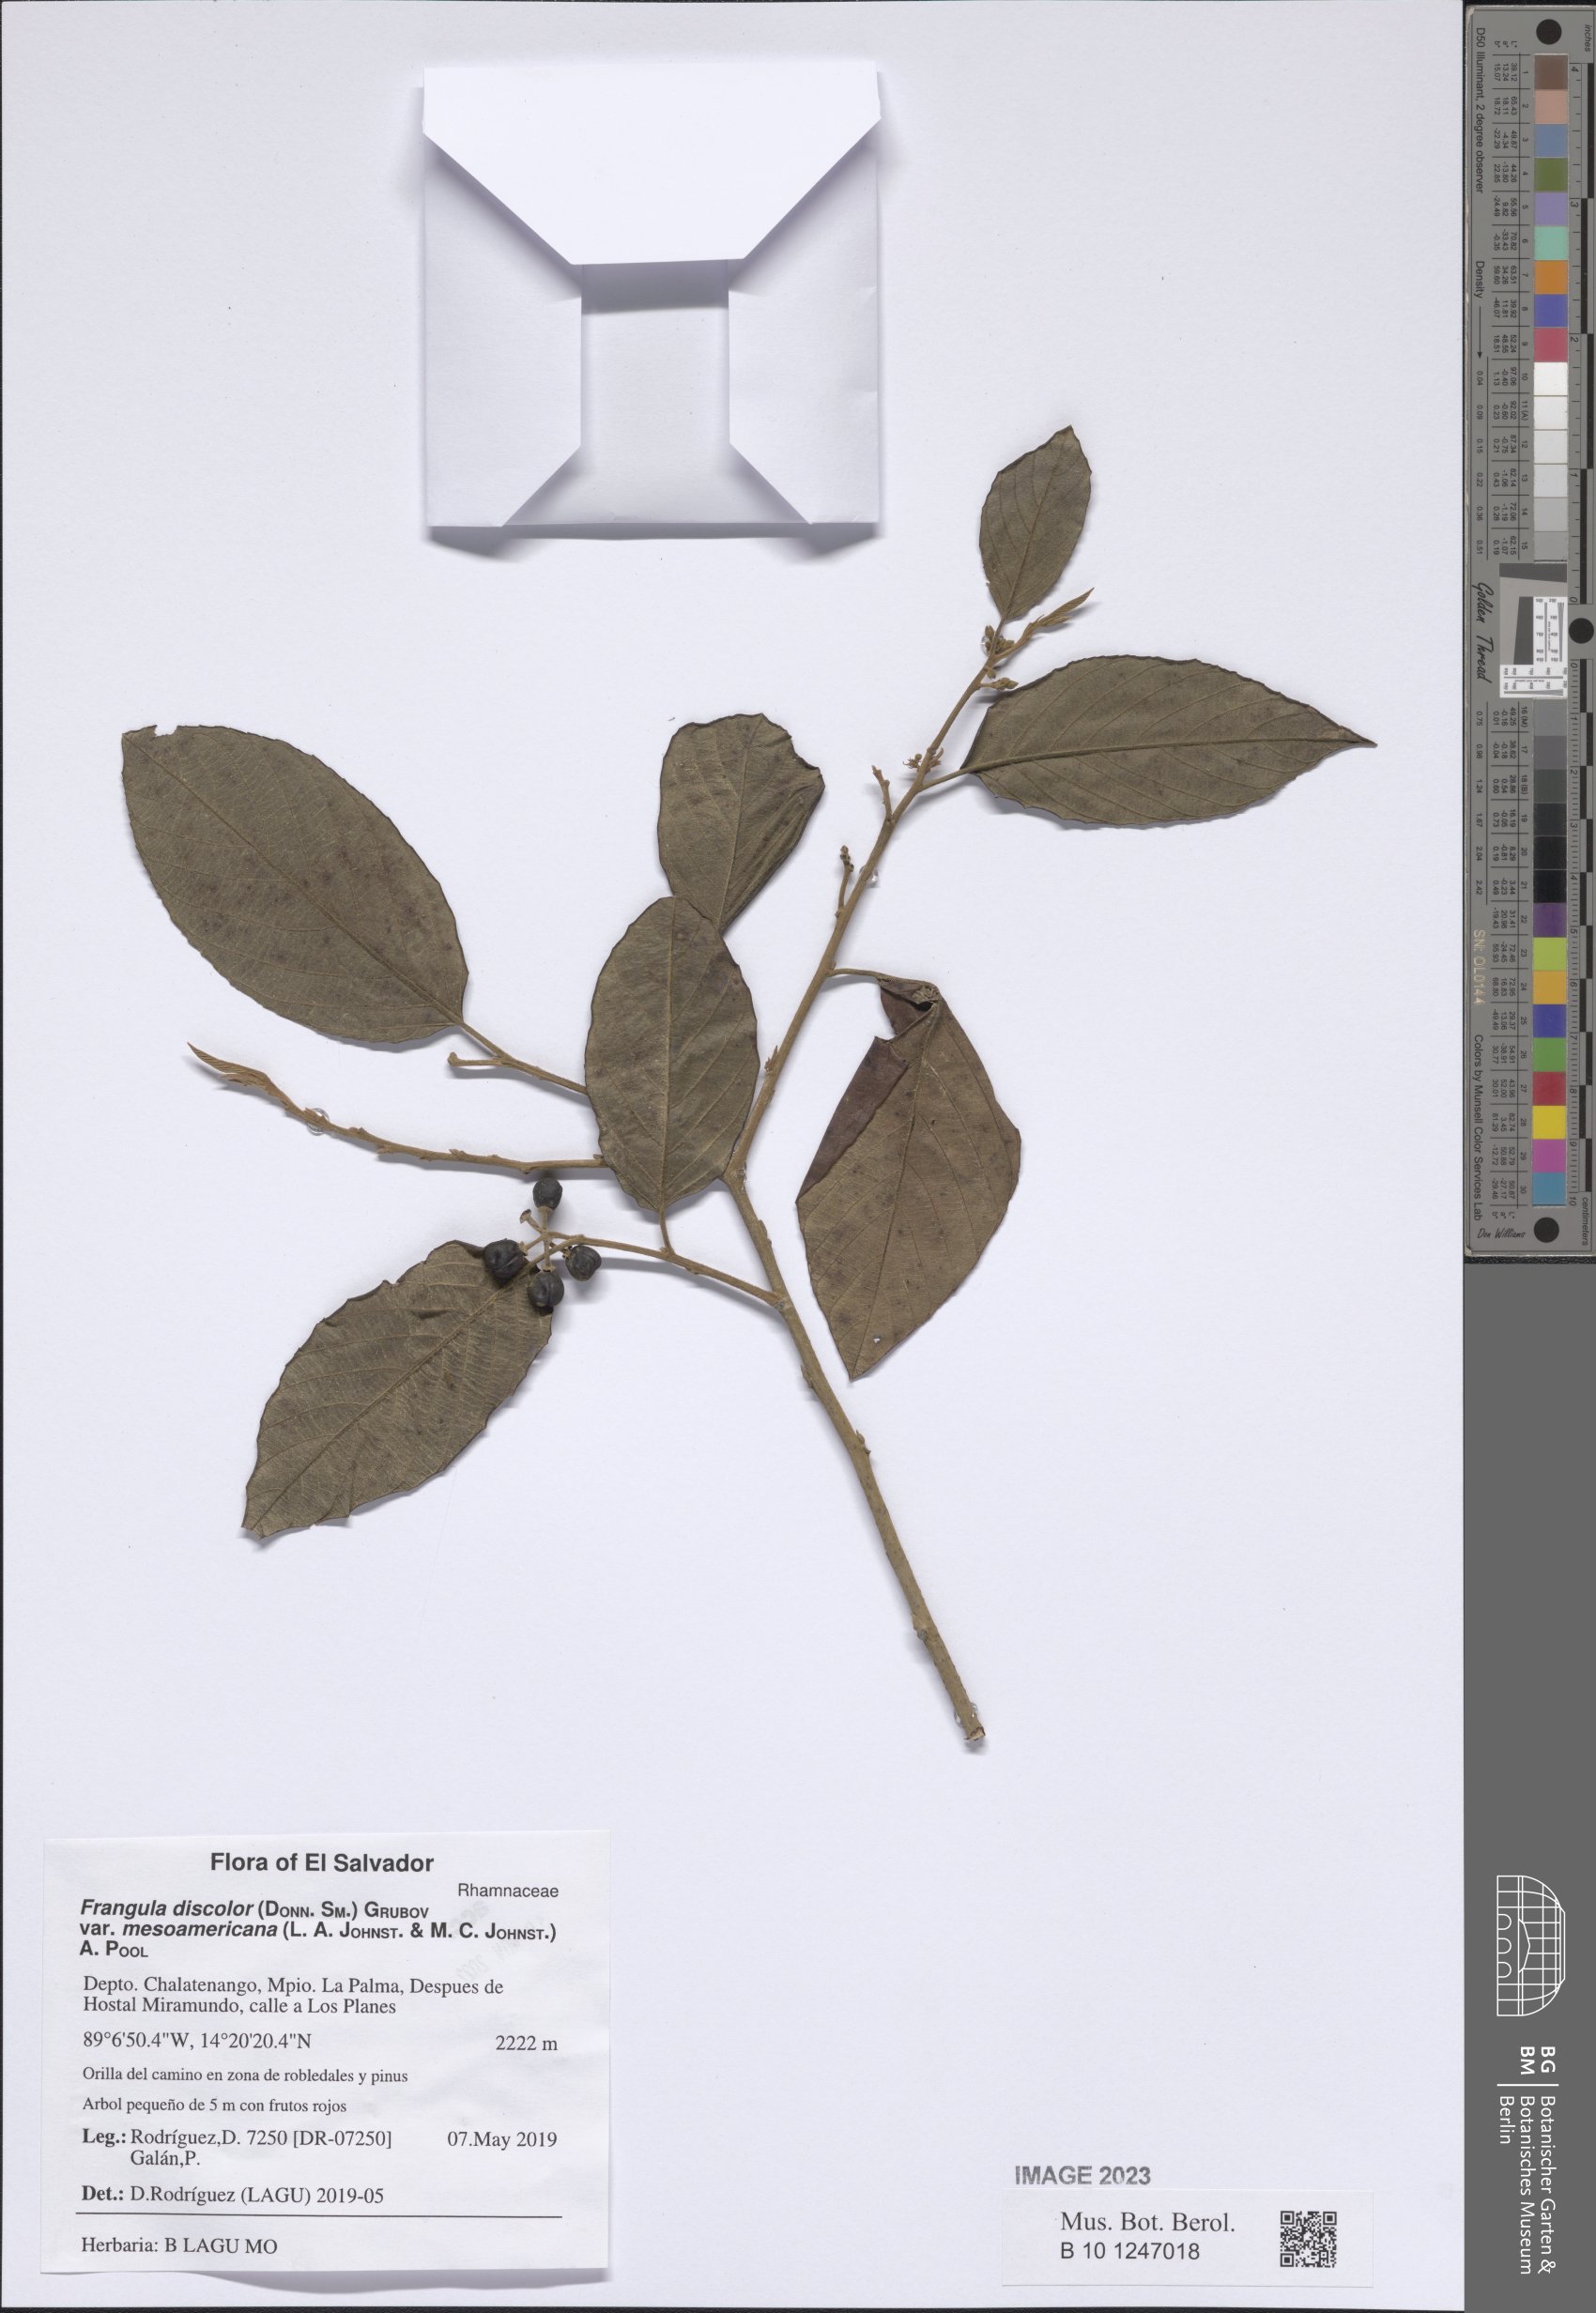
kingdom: Plantae
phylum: Tracheophyta
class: Magnoliopsida
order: Rosales
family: Rhamnaceae
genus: Frangula
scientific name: Frangula discolor
